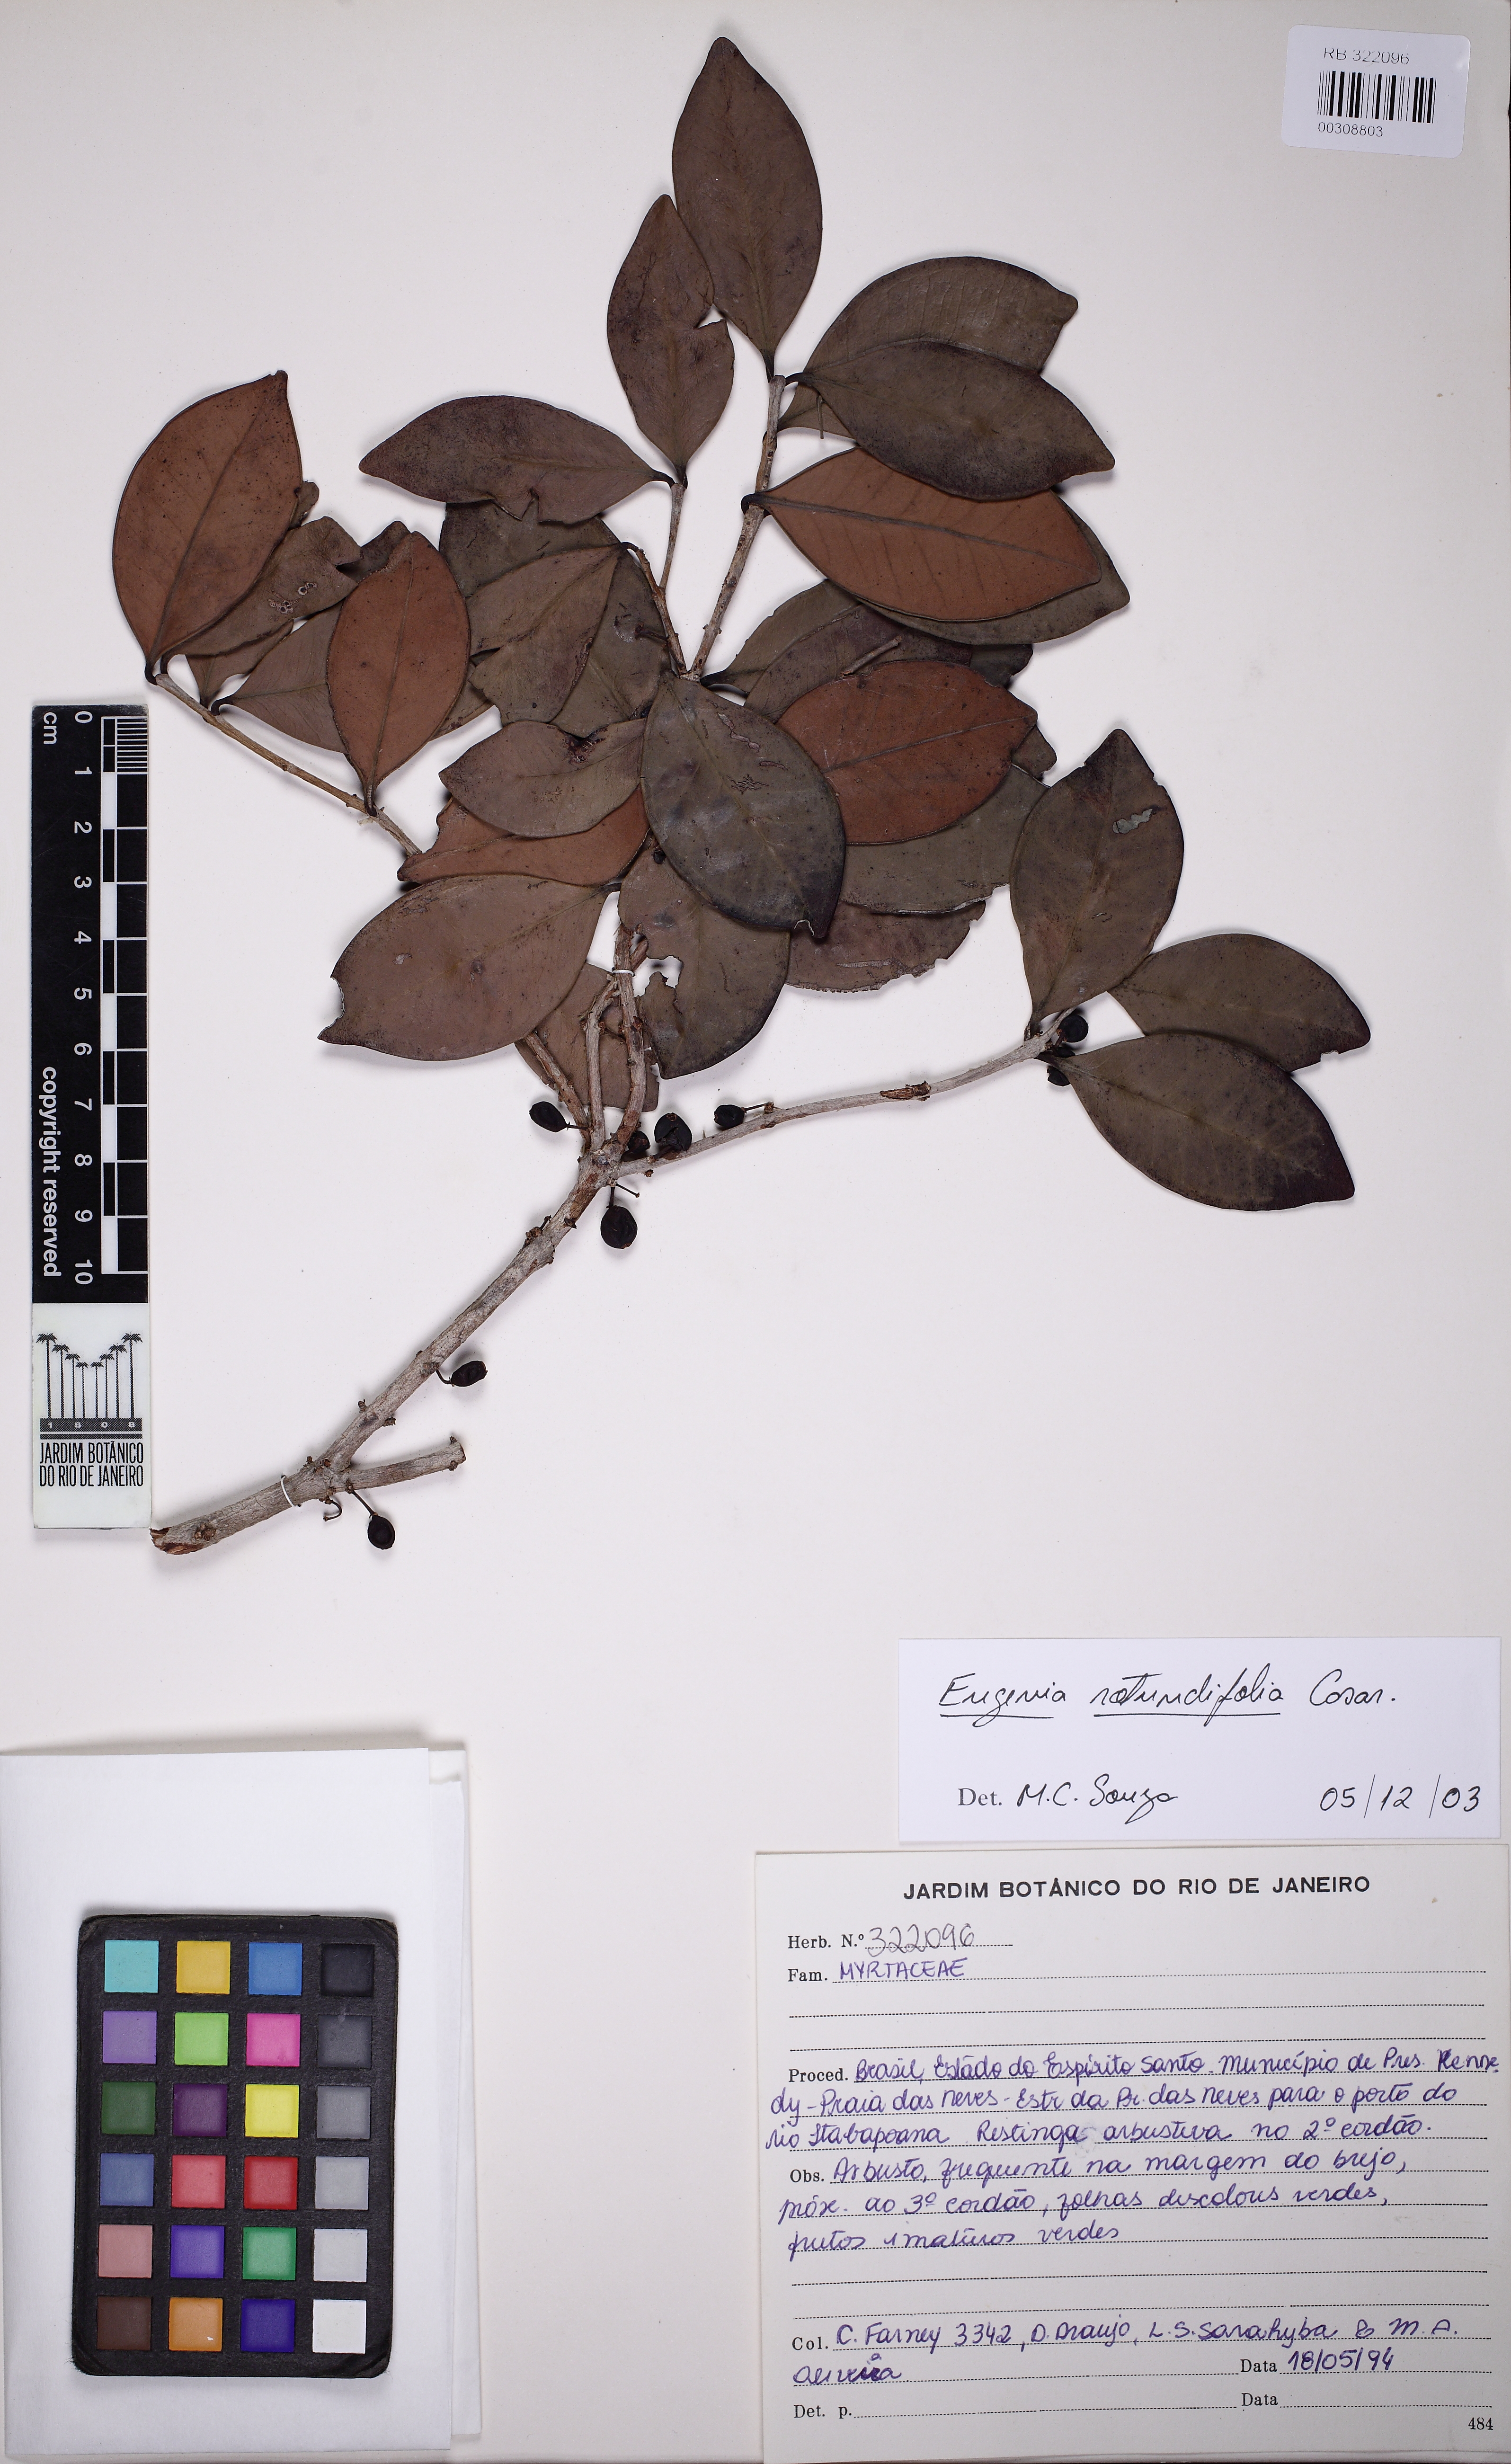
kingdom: Plantae
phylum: Tracheophyta
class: Magnoliopsida
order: Myrtales
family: Myrtaceae
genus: Syzygium
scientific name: Syzygium rotundifolium
